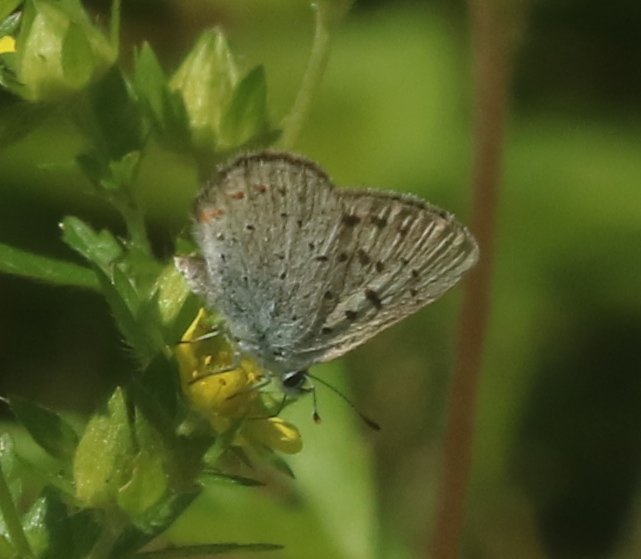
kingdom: Animalia
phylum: Arthropoda
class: Insecta
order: Lepidoptera
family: Sesiidae
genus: Sesia
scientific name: Sesia Lycaena epixanthe
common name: Bog Copper
